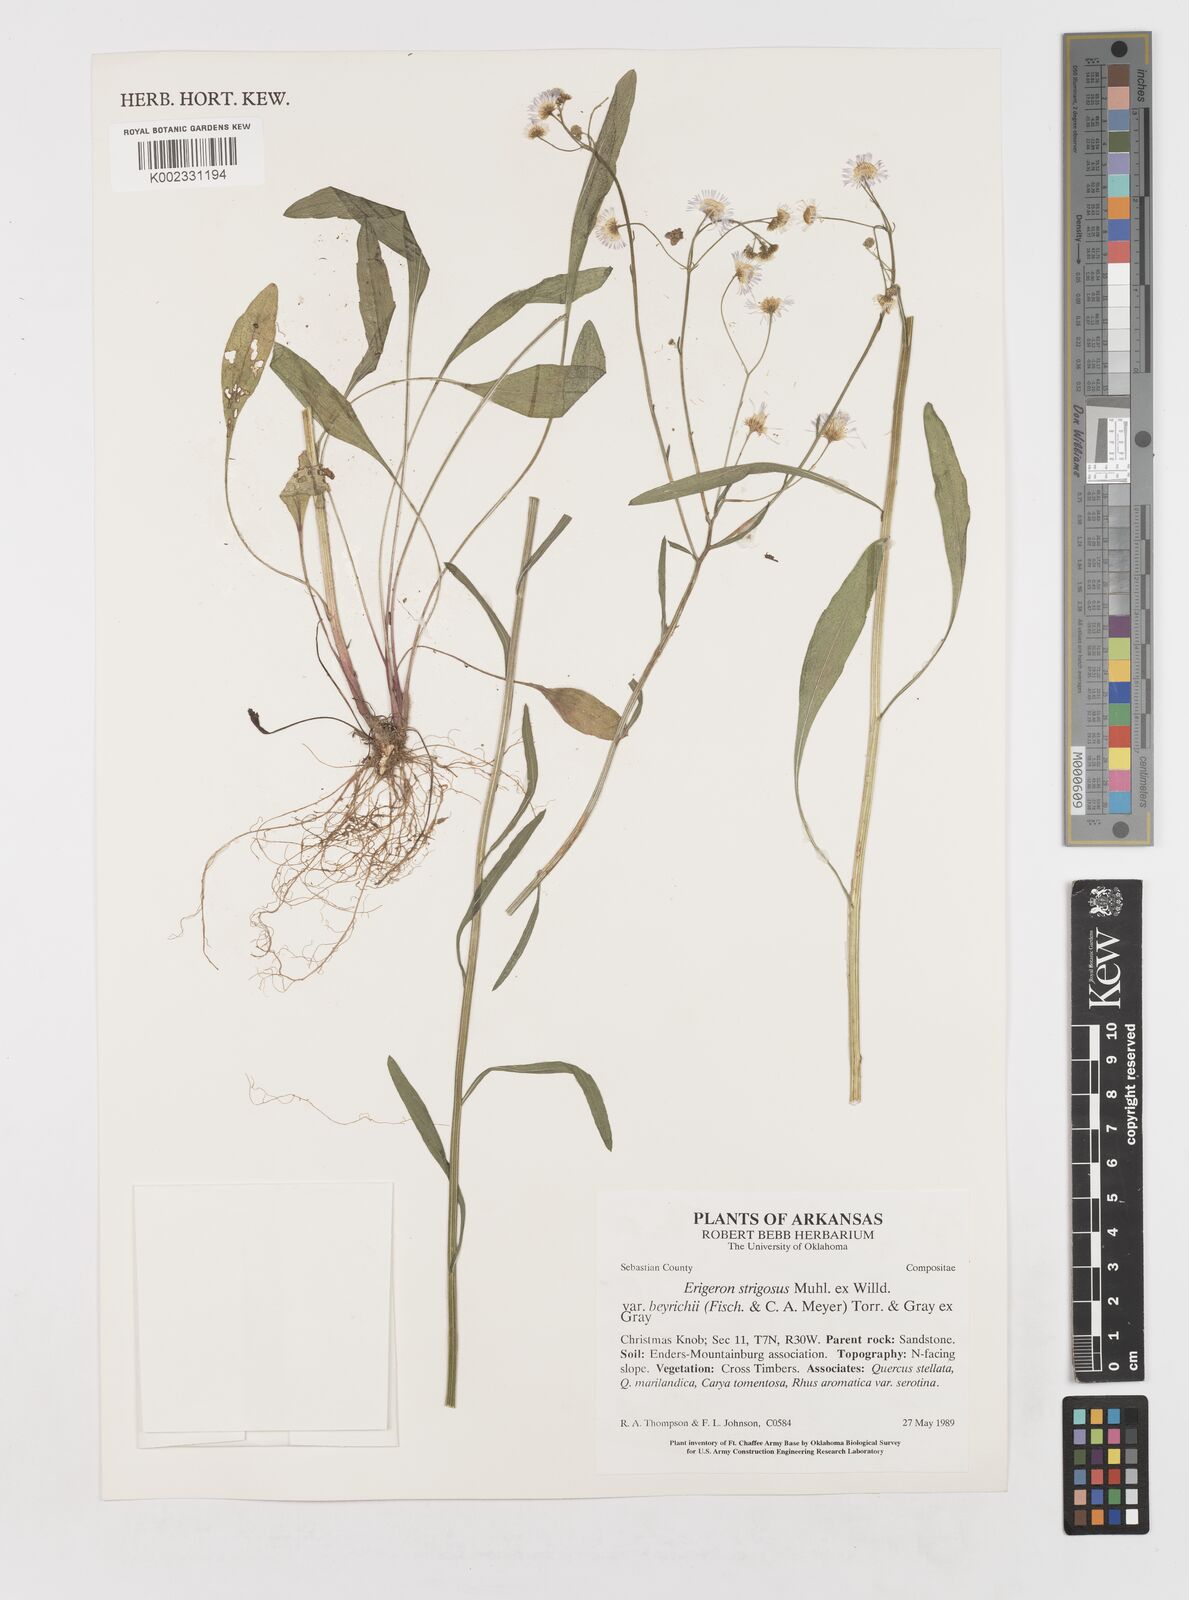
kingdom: Plantae
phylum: Tracheophyta
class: Magnoliopsida
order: Asterales
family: Asteraceae
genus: Erigeron
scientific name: Erigeron strigosus
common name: Common eastern fleabane
